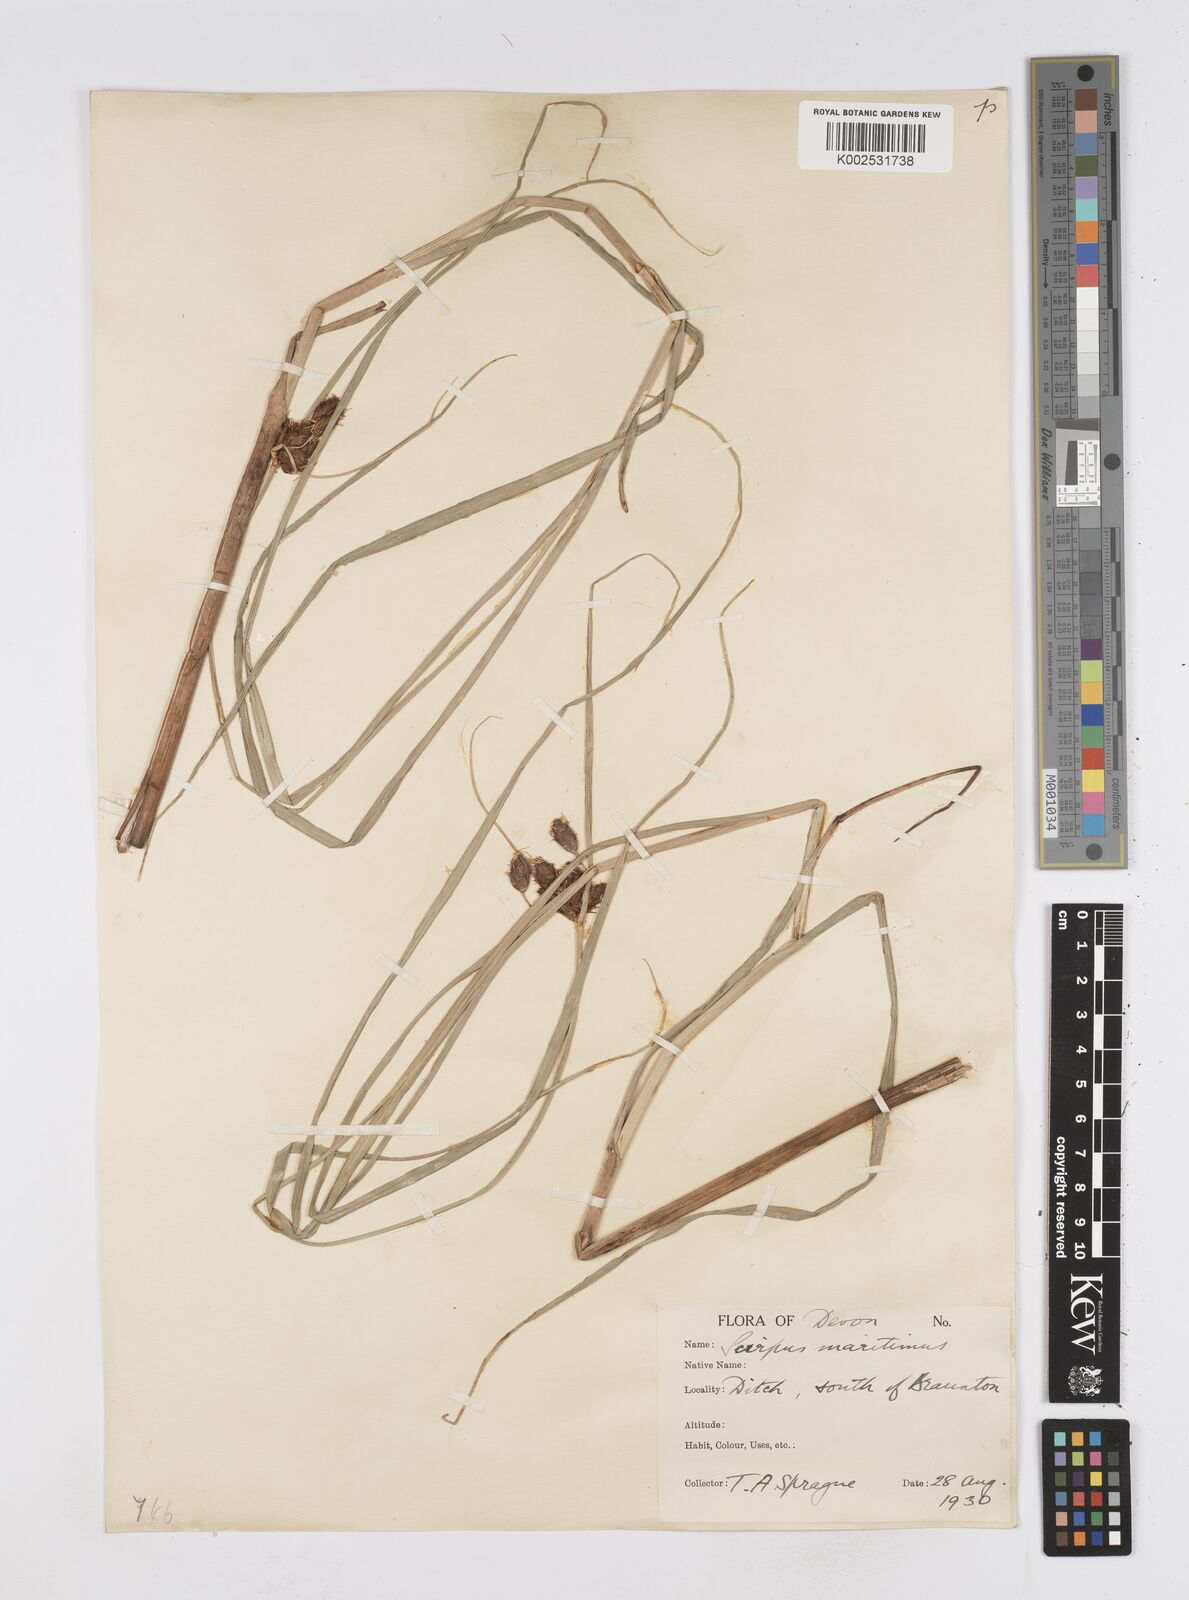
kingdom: Plantae
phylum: Tracheophyta
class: Liliopsida
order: Poales
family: Cyperaceae
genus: Bolboschoenus
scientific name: Bolboschoenus maritimus
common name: Sea club-rush
